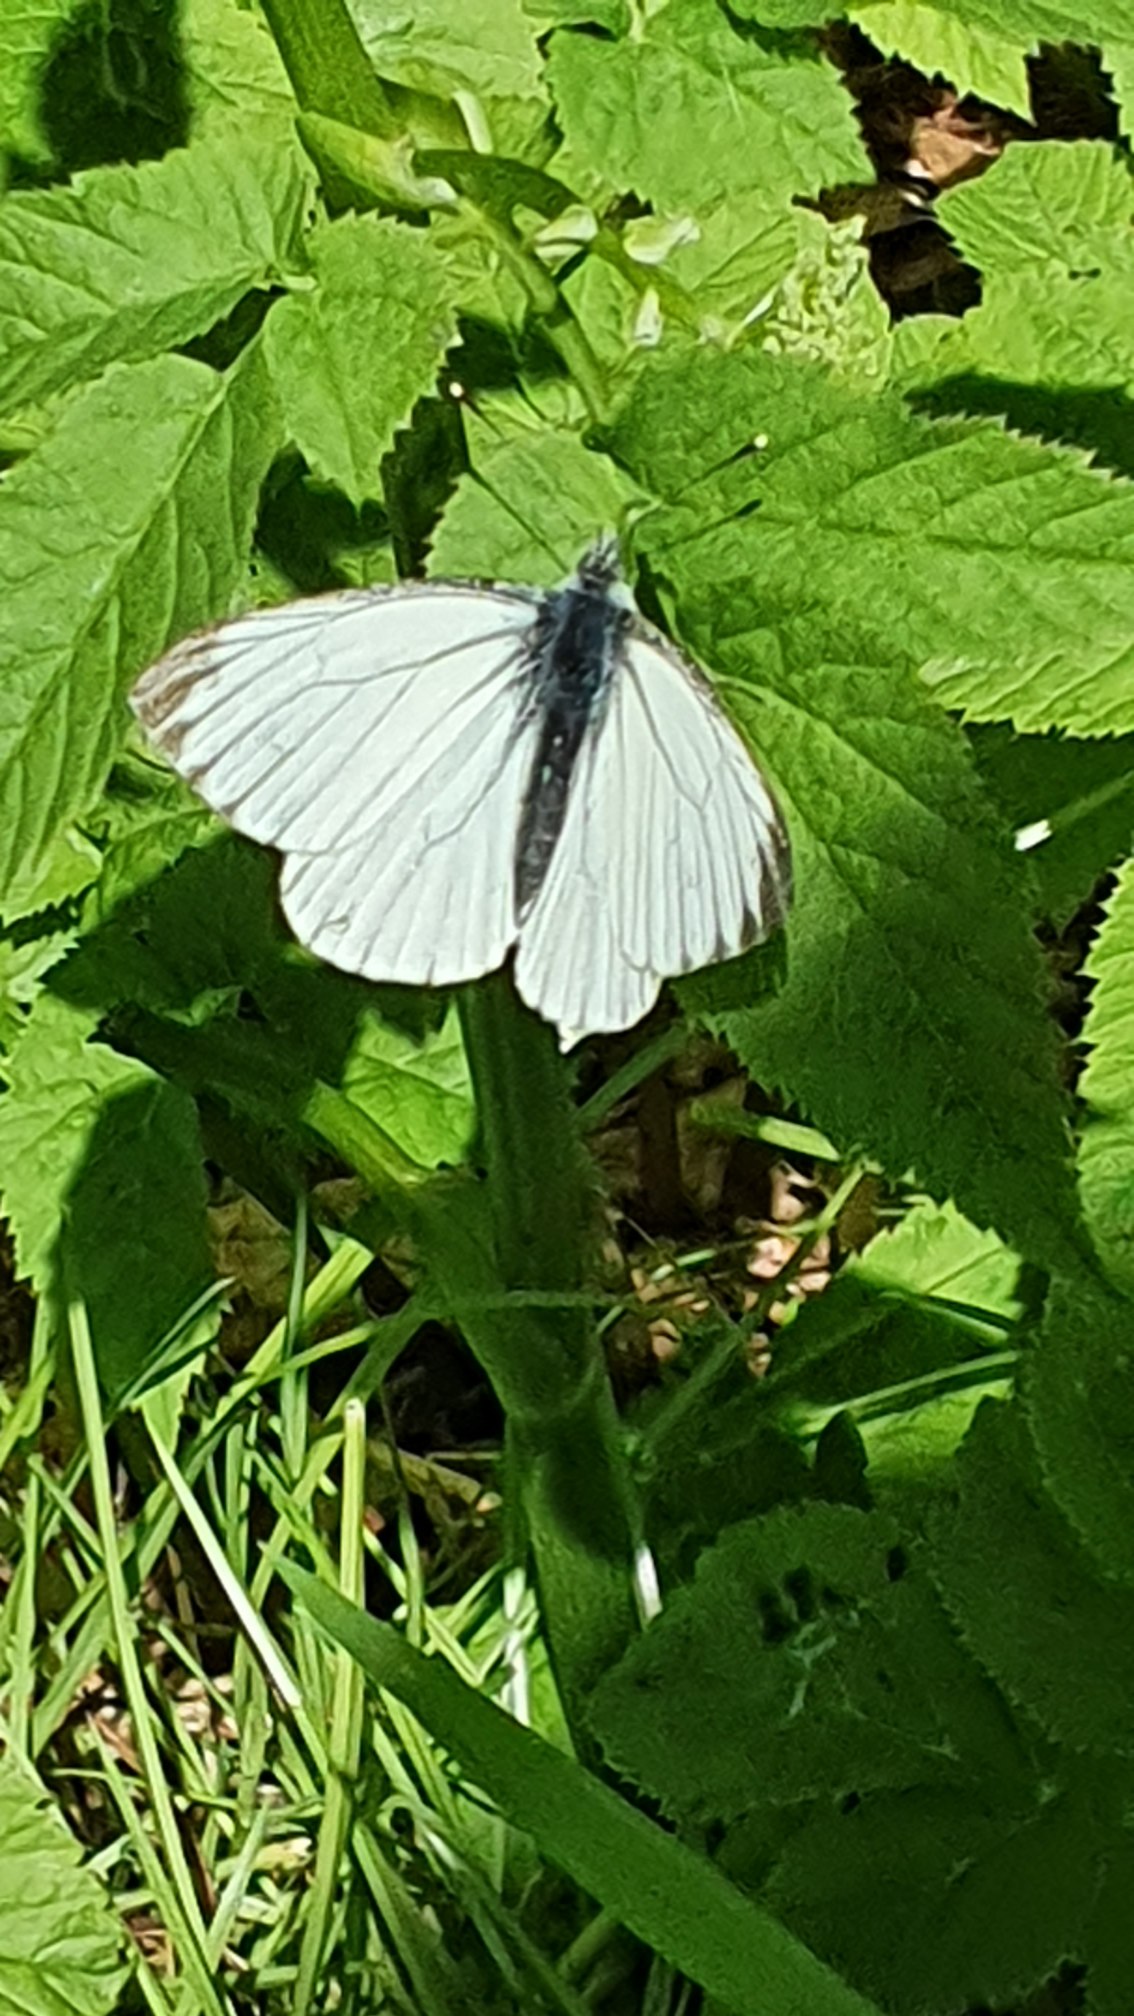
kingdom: Animalia
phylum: Arthropoda
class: Insecta
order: Lepidoptera
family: Pieridae
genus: Pieris
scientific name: Pieris napi
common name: Grønåret kålsommerfugl
